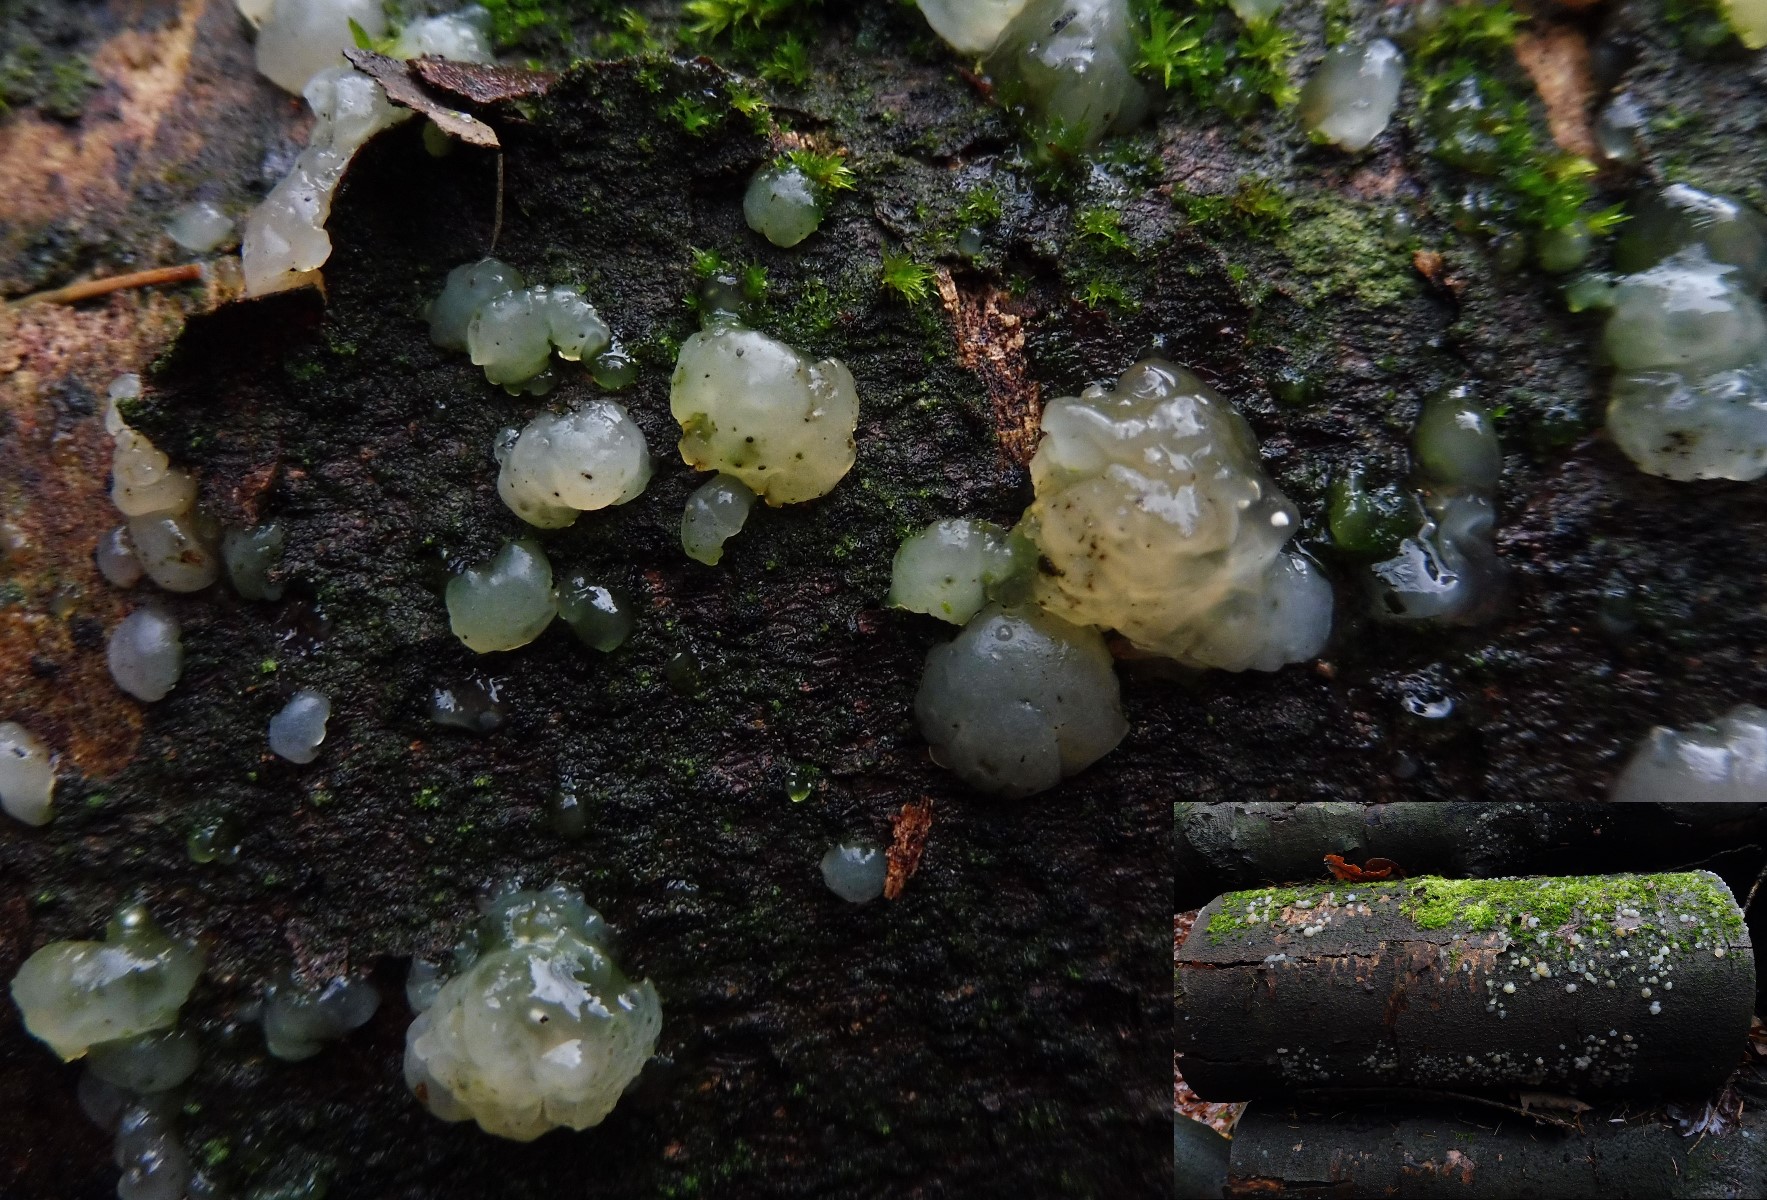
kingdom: Fungi
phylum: Basidiomycota
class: Agaricomycetes
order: Auriculariales
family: Hyaloriaceae
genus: Myxarium
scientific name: Myxarium nucleatum
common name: klar bævretop
